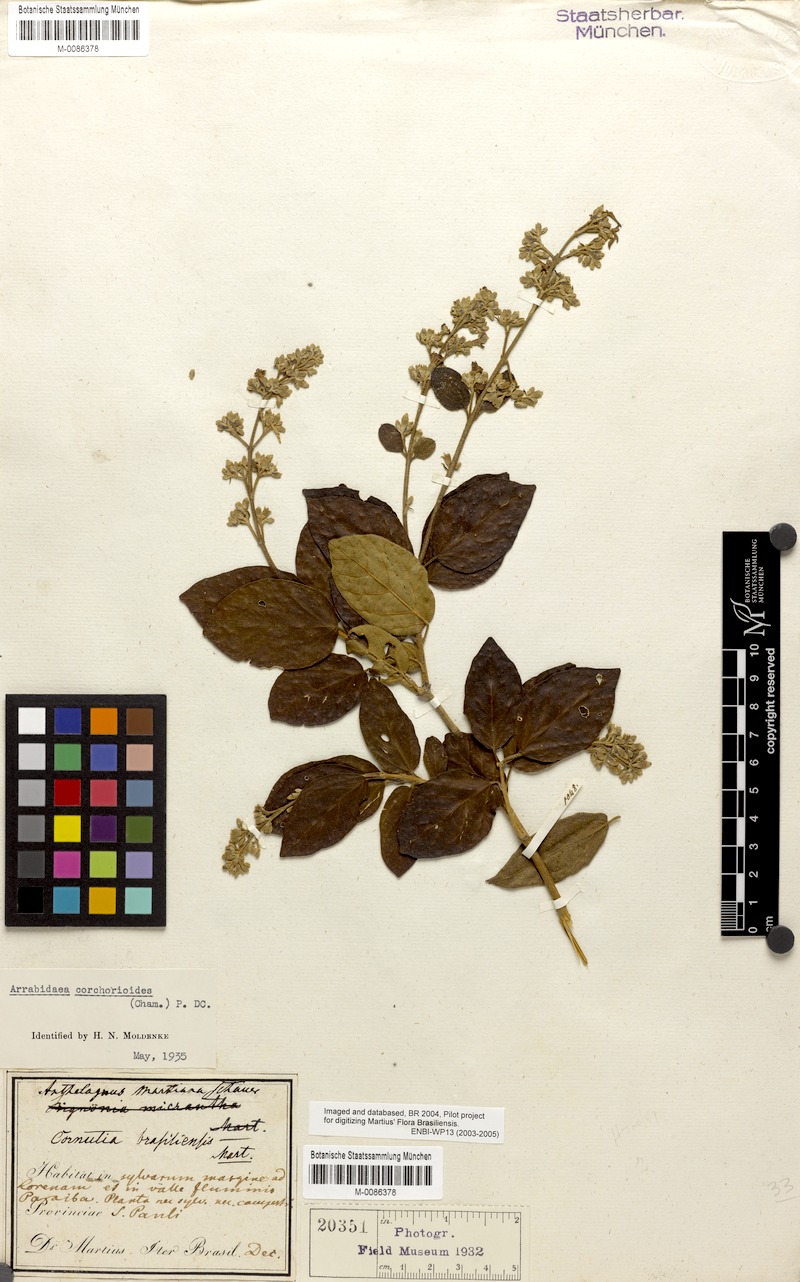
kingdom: Plantae
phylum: Tracheophyta
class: Magnoliopsida
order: Lamiales
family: Bignoniaceae
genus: Xylophragma
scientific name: Xylophragma corchoroides
